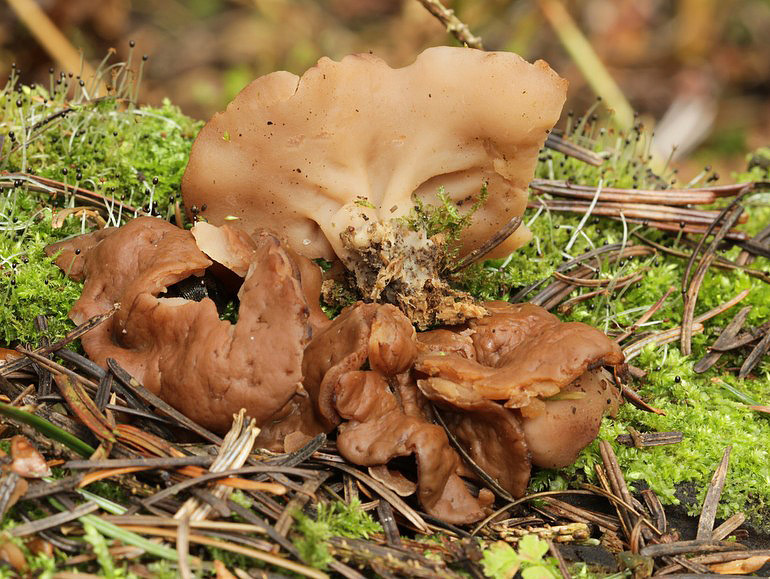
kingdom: Fungi
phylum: Ascomycota
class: Pezizomycetes
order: Pezizales
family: Discinaceae
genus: Discina
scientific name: Discina ancilis
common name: udbredt stenmorkel
